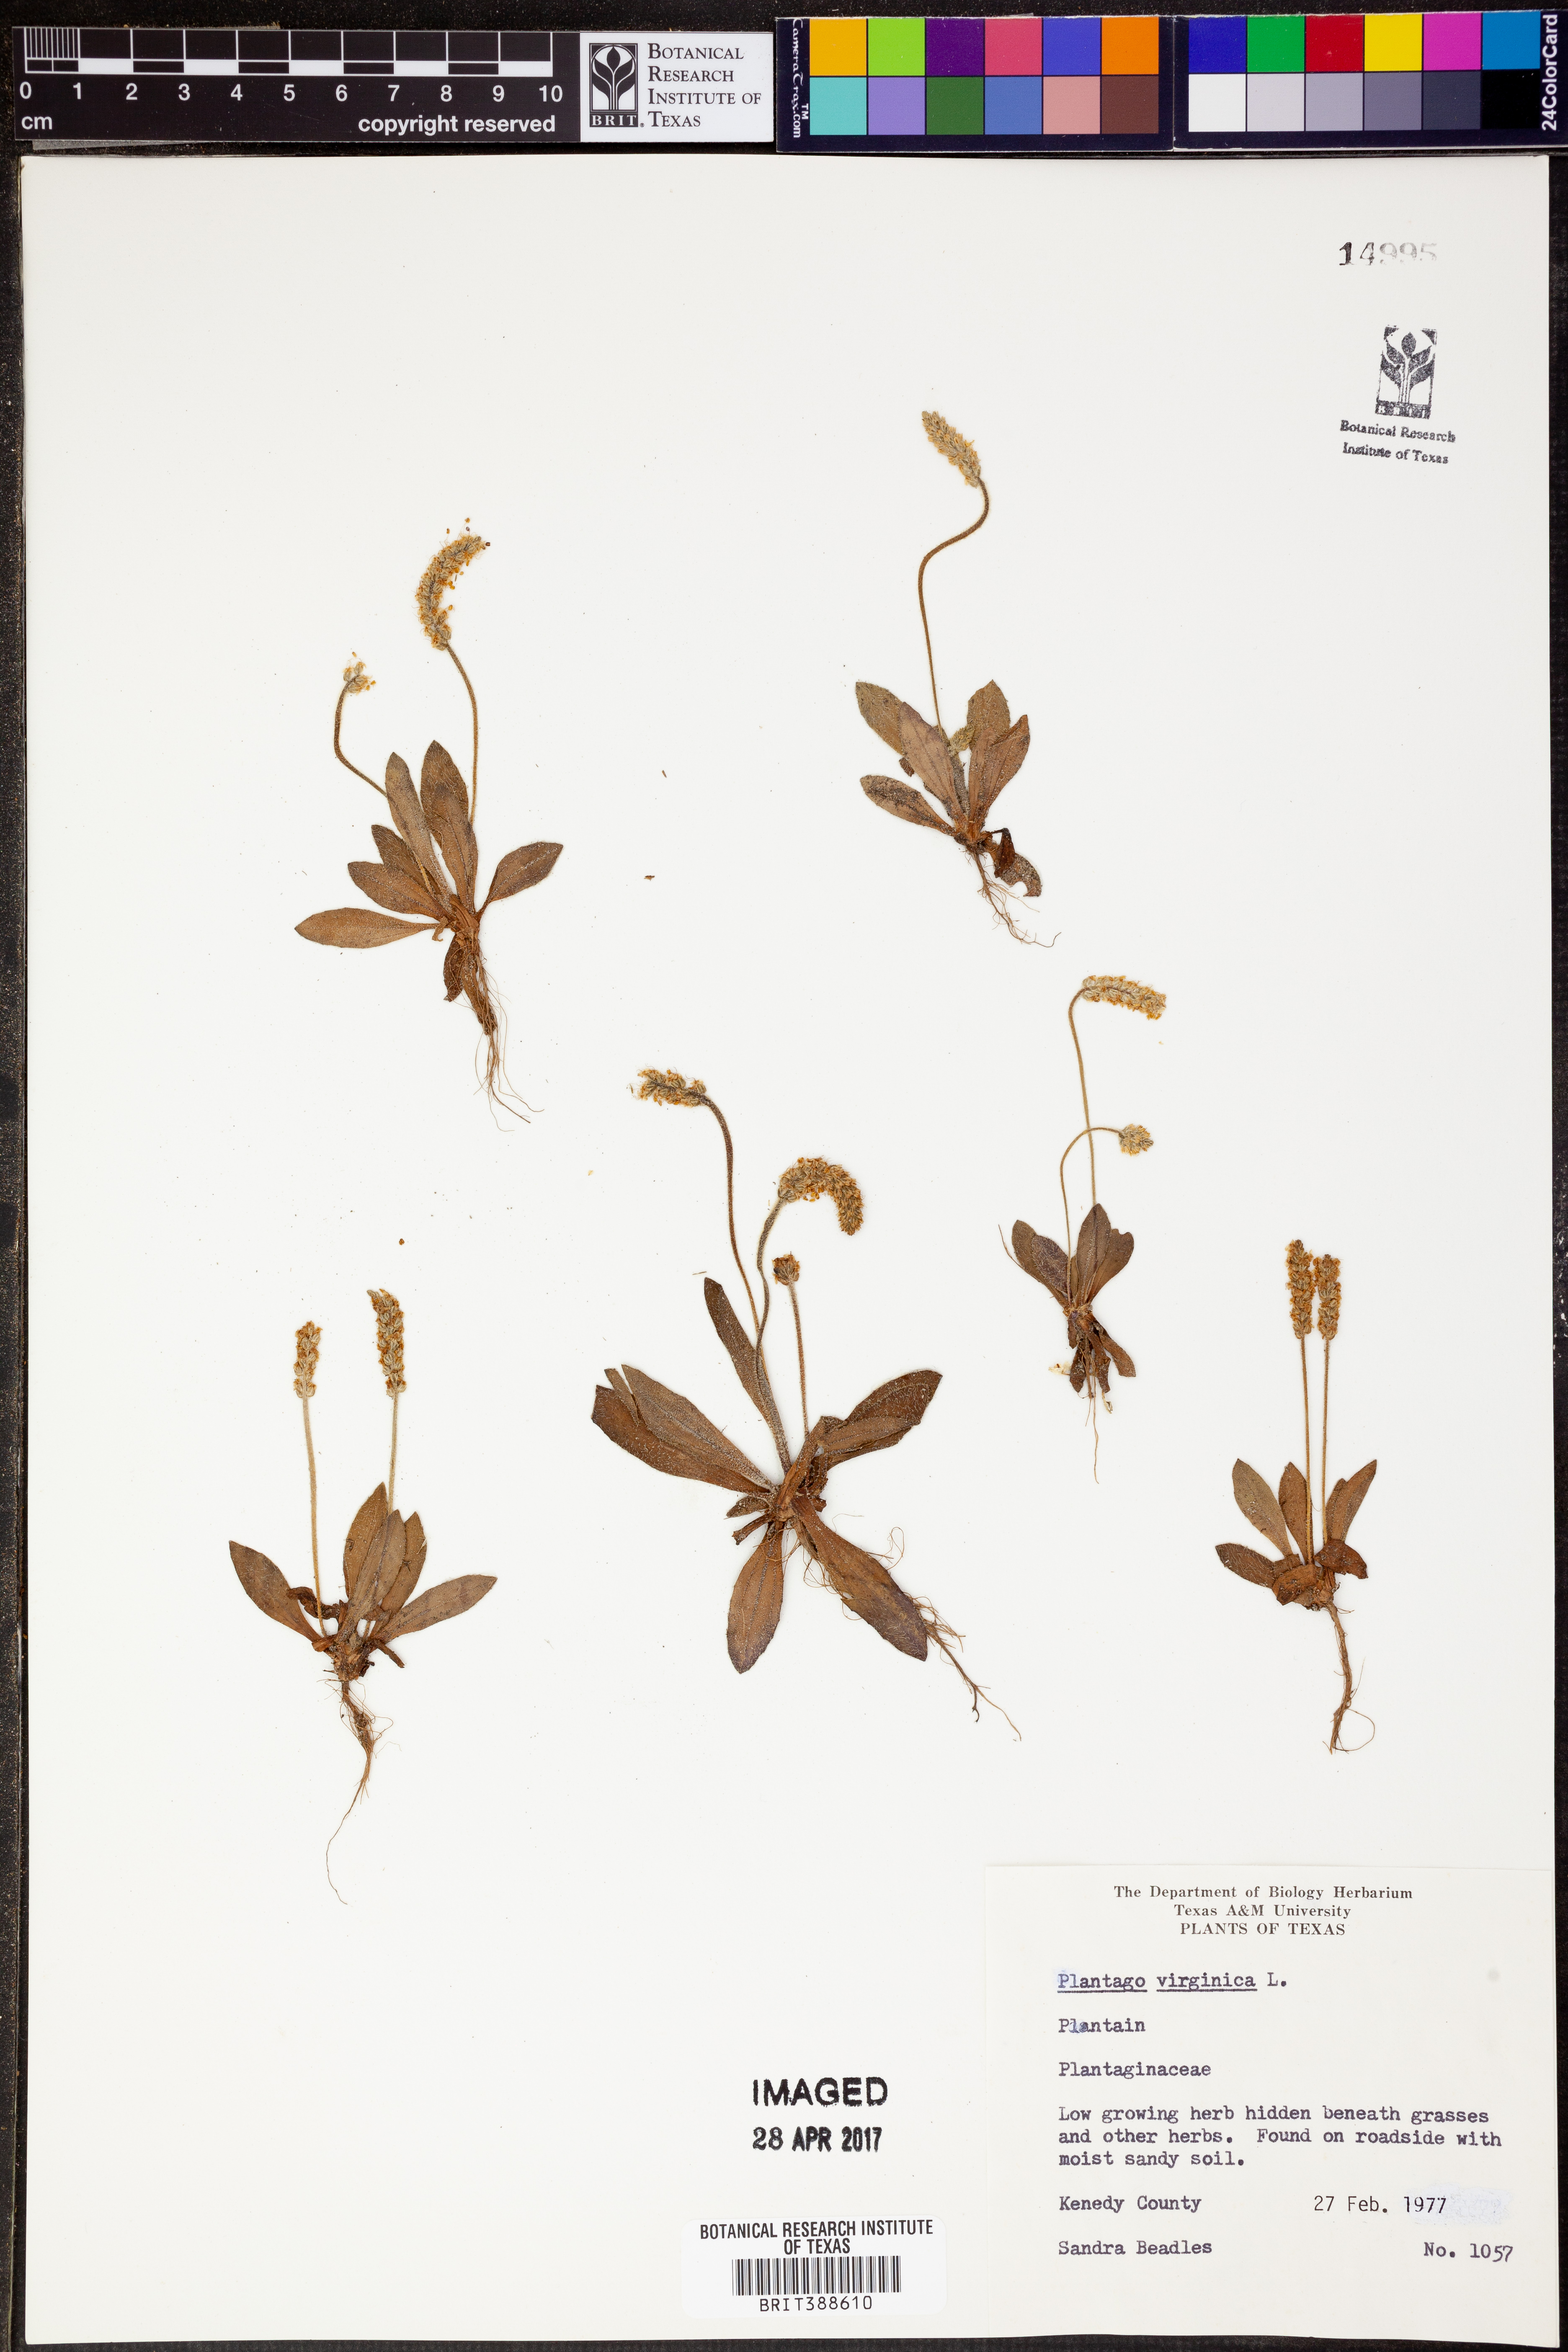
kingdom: Plantae
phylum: Tracheophyta
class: Magnoliopsida
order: Lamiales
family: Plantaginaceae
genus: Plantago
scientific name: Plantago virginica
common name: Hoary plantain
